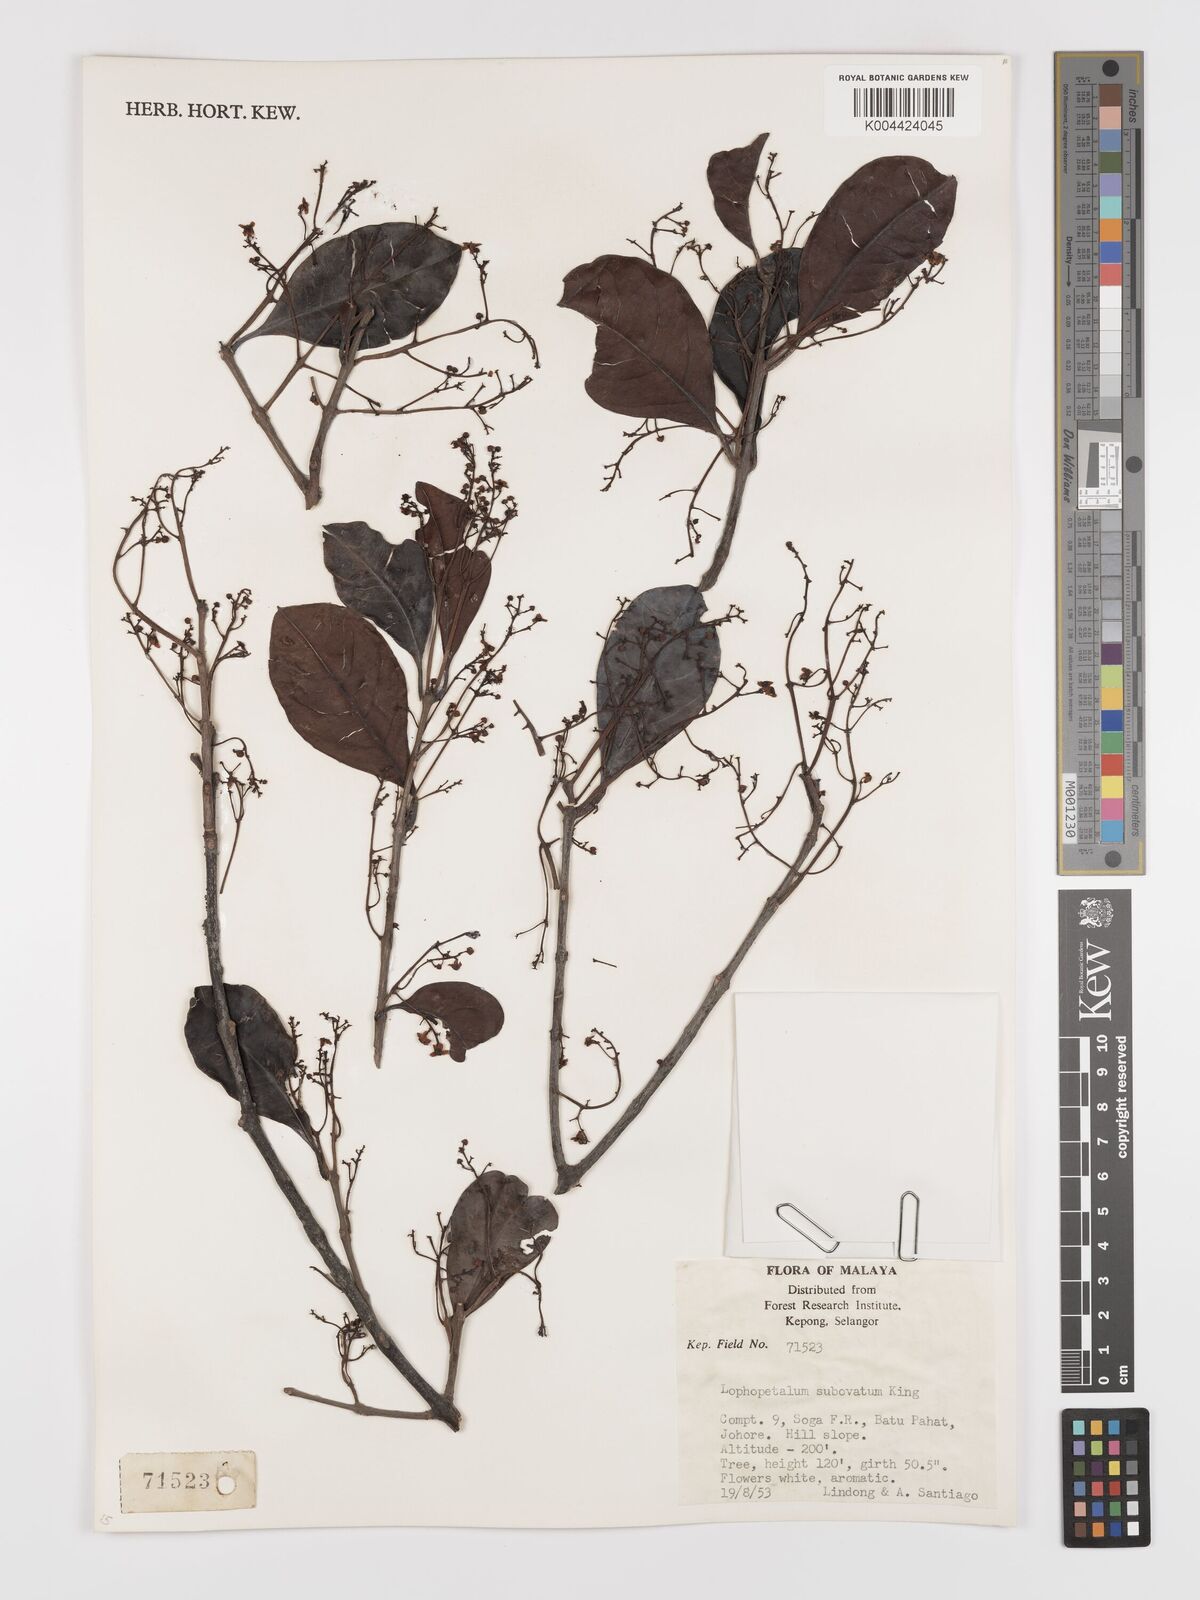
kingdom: Plantae
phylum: Tracheophyta
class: Magnoliopsida
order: Celastrales
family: Celastraceae
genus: Lophopetalum
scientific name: Lophopetalum subobovatum
